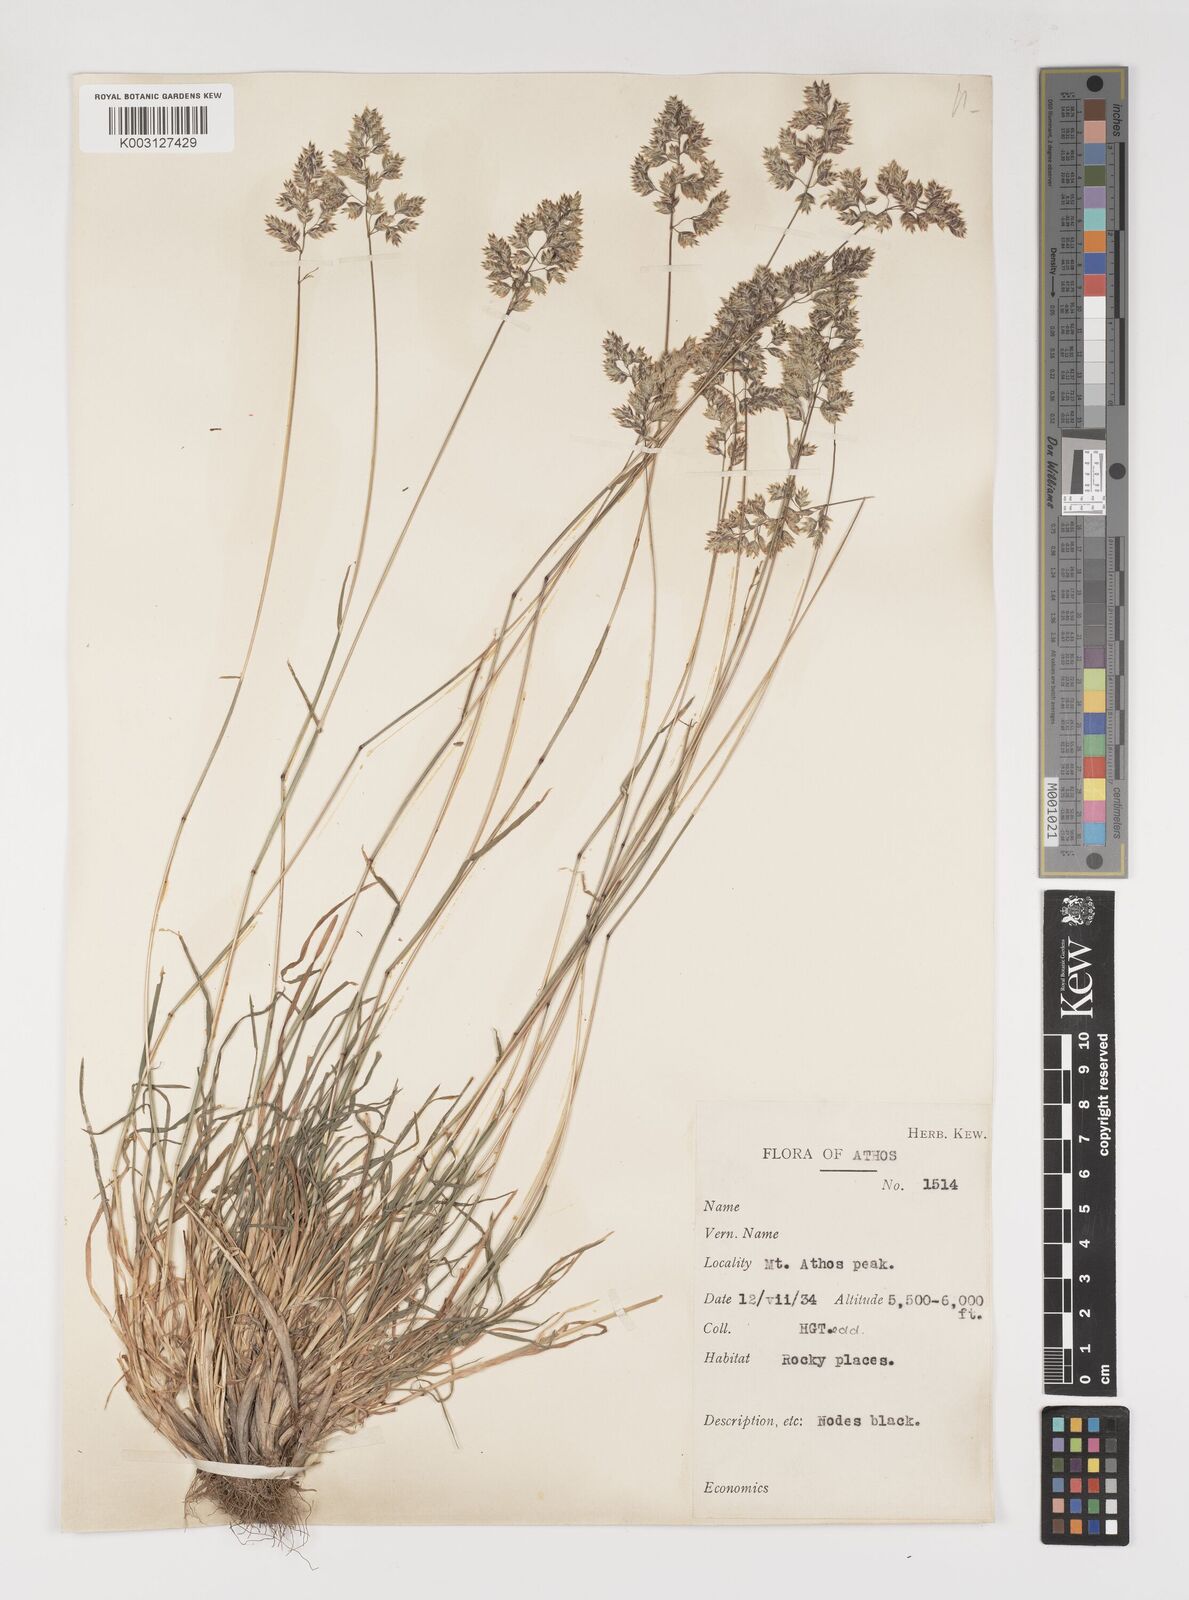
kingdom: Plantae
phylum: Tracheophyta
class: Liliopsida
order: Poales
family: Poaceae
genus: Poa
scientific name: Poa alpina
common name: Alpine bluegrass
